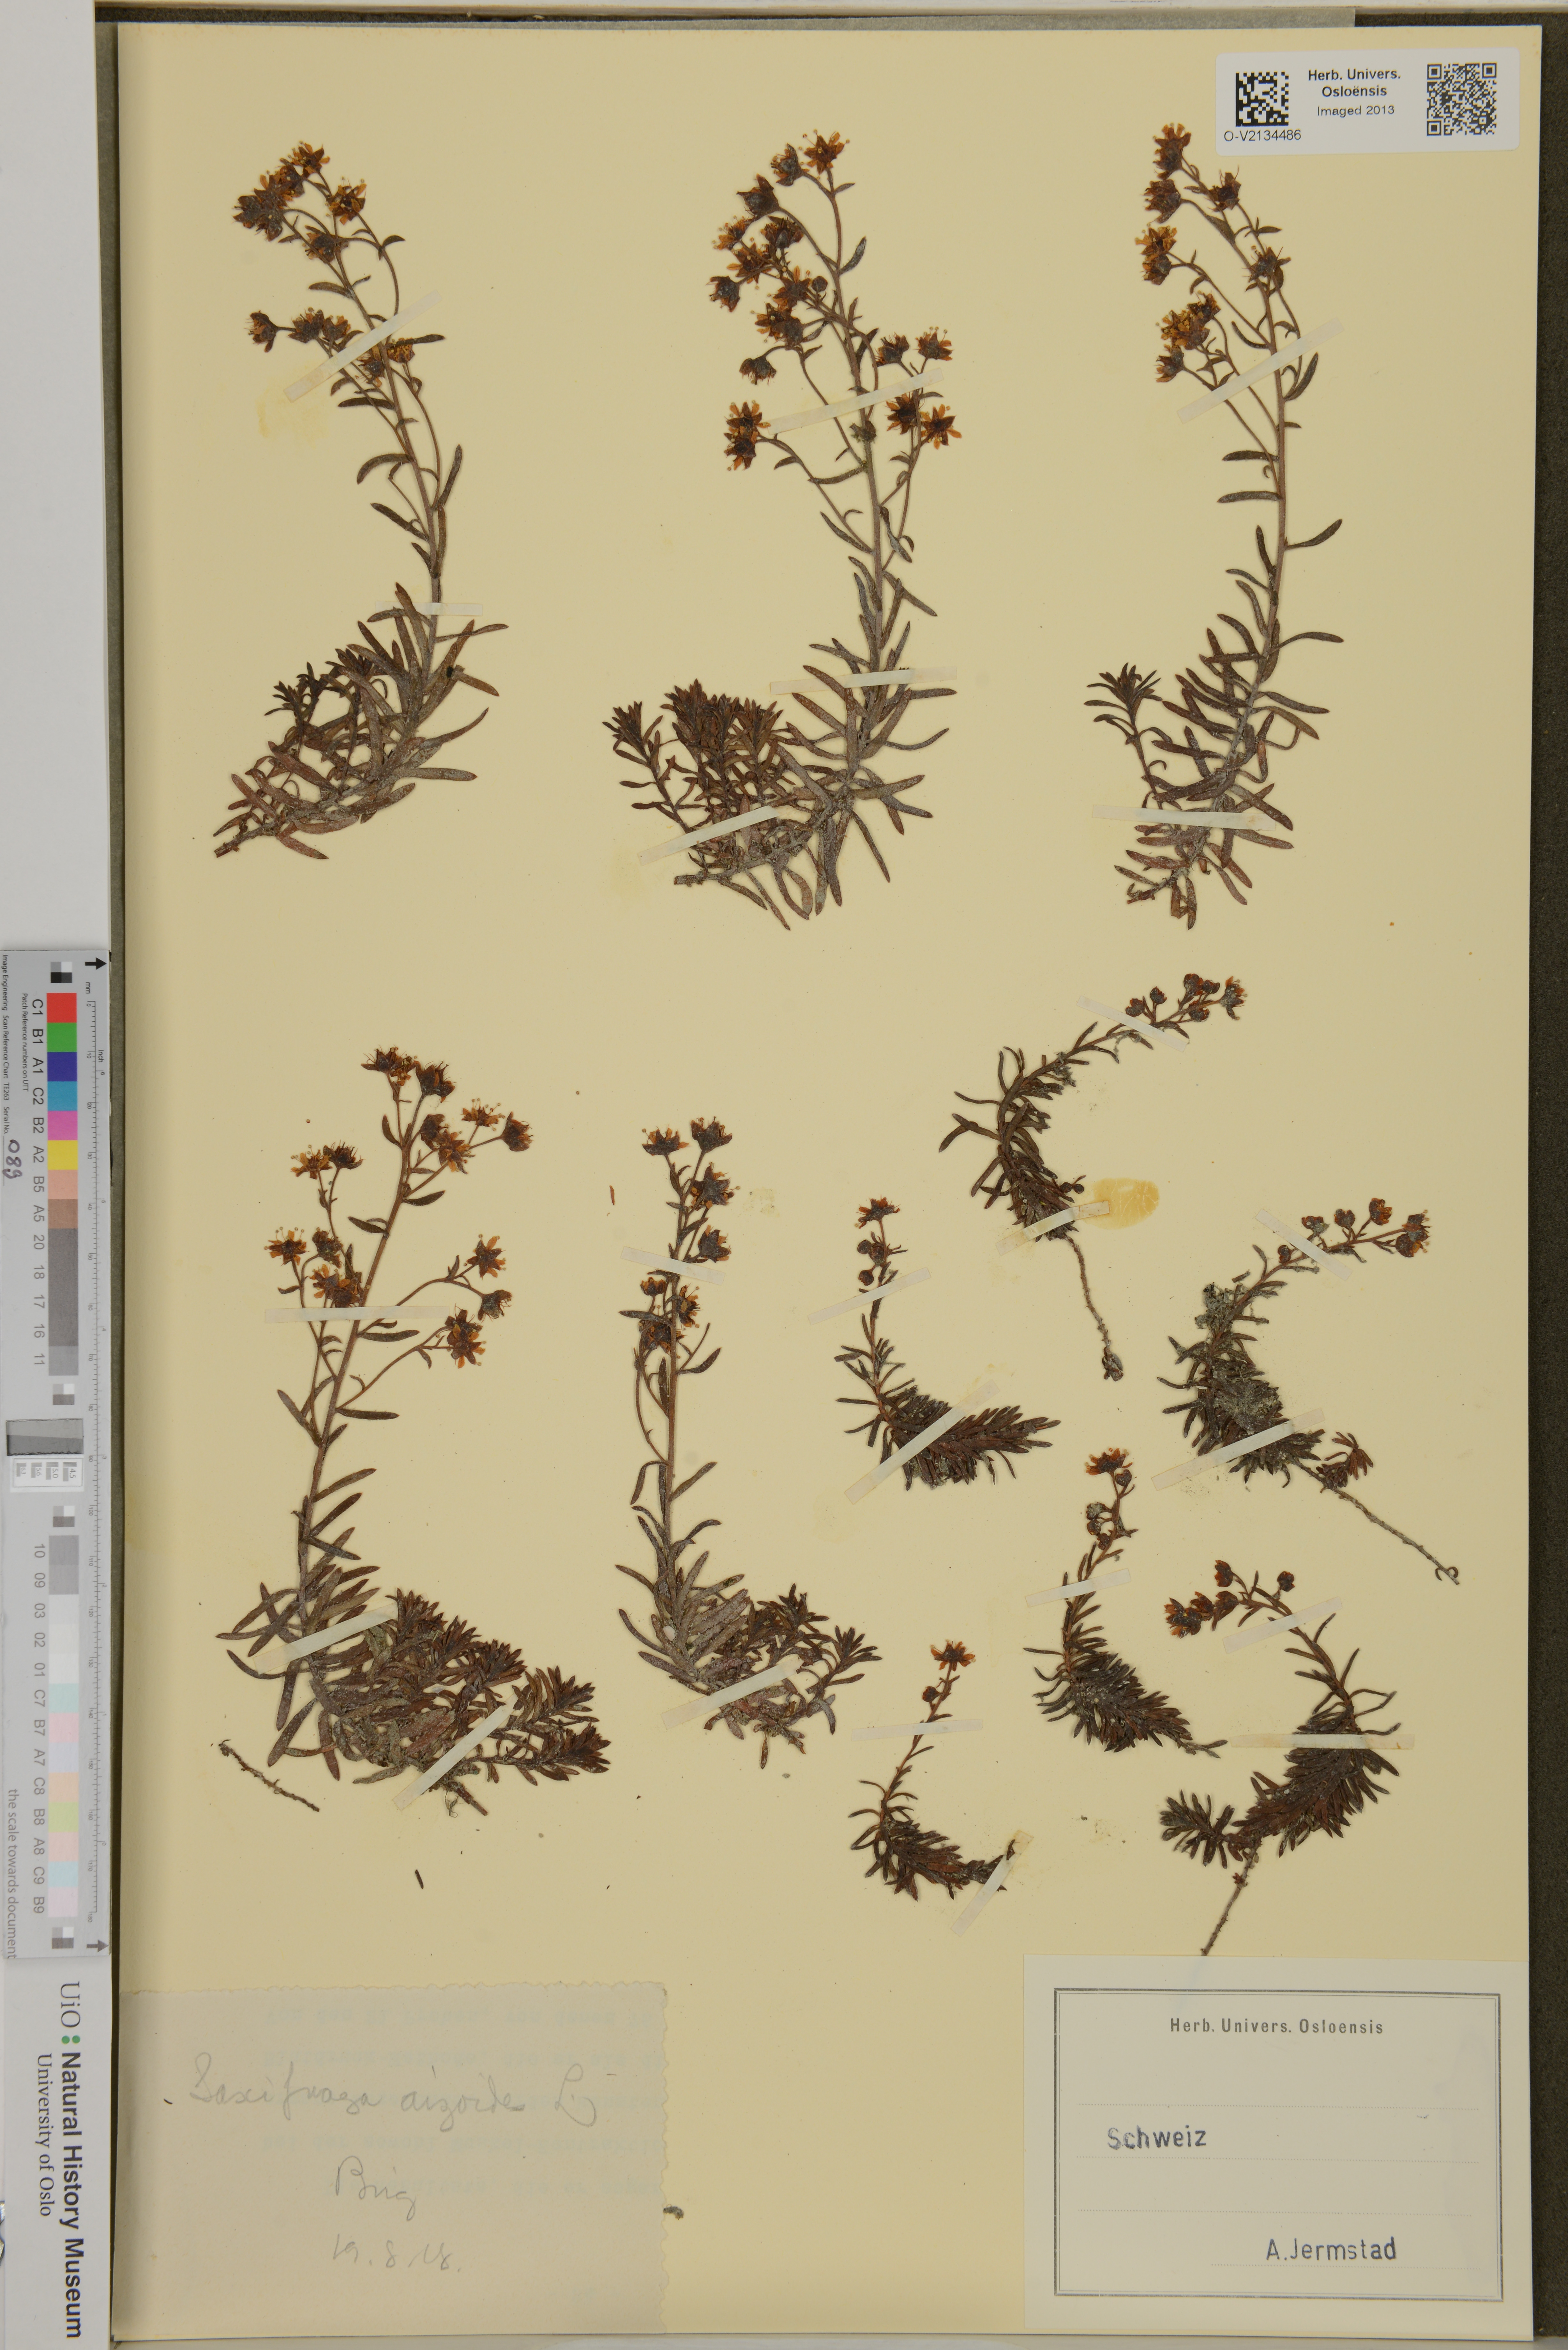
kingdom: Plantae
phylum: Tracheophyta
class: Magnoliopsida
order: Saxifragales
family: Saxifragaceae
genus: Saxifraga
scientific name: Saxifraga aizoides
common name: Yellow mountain saxifrage
